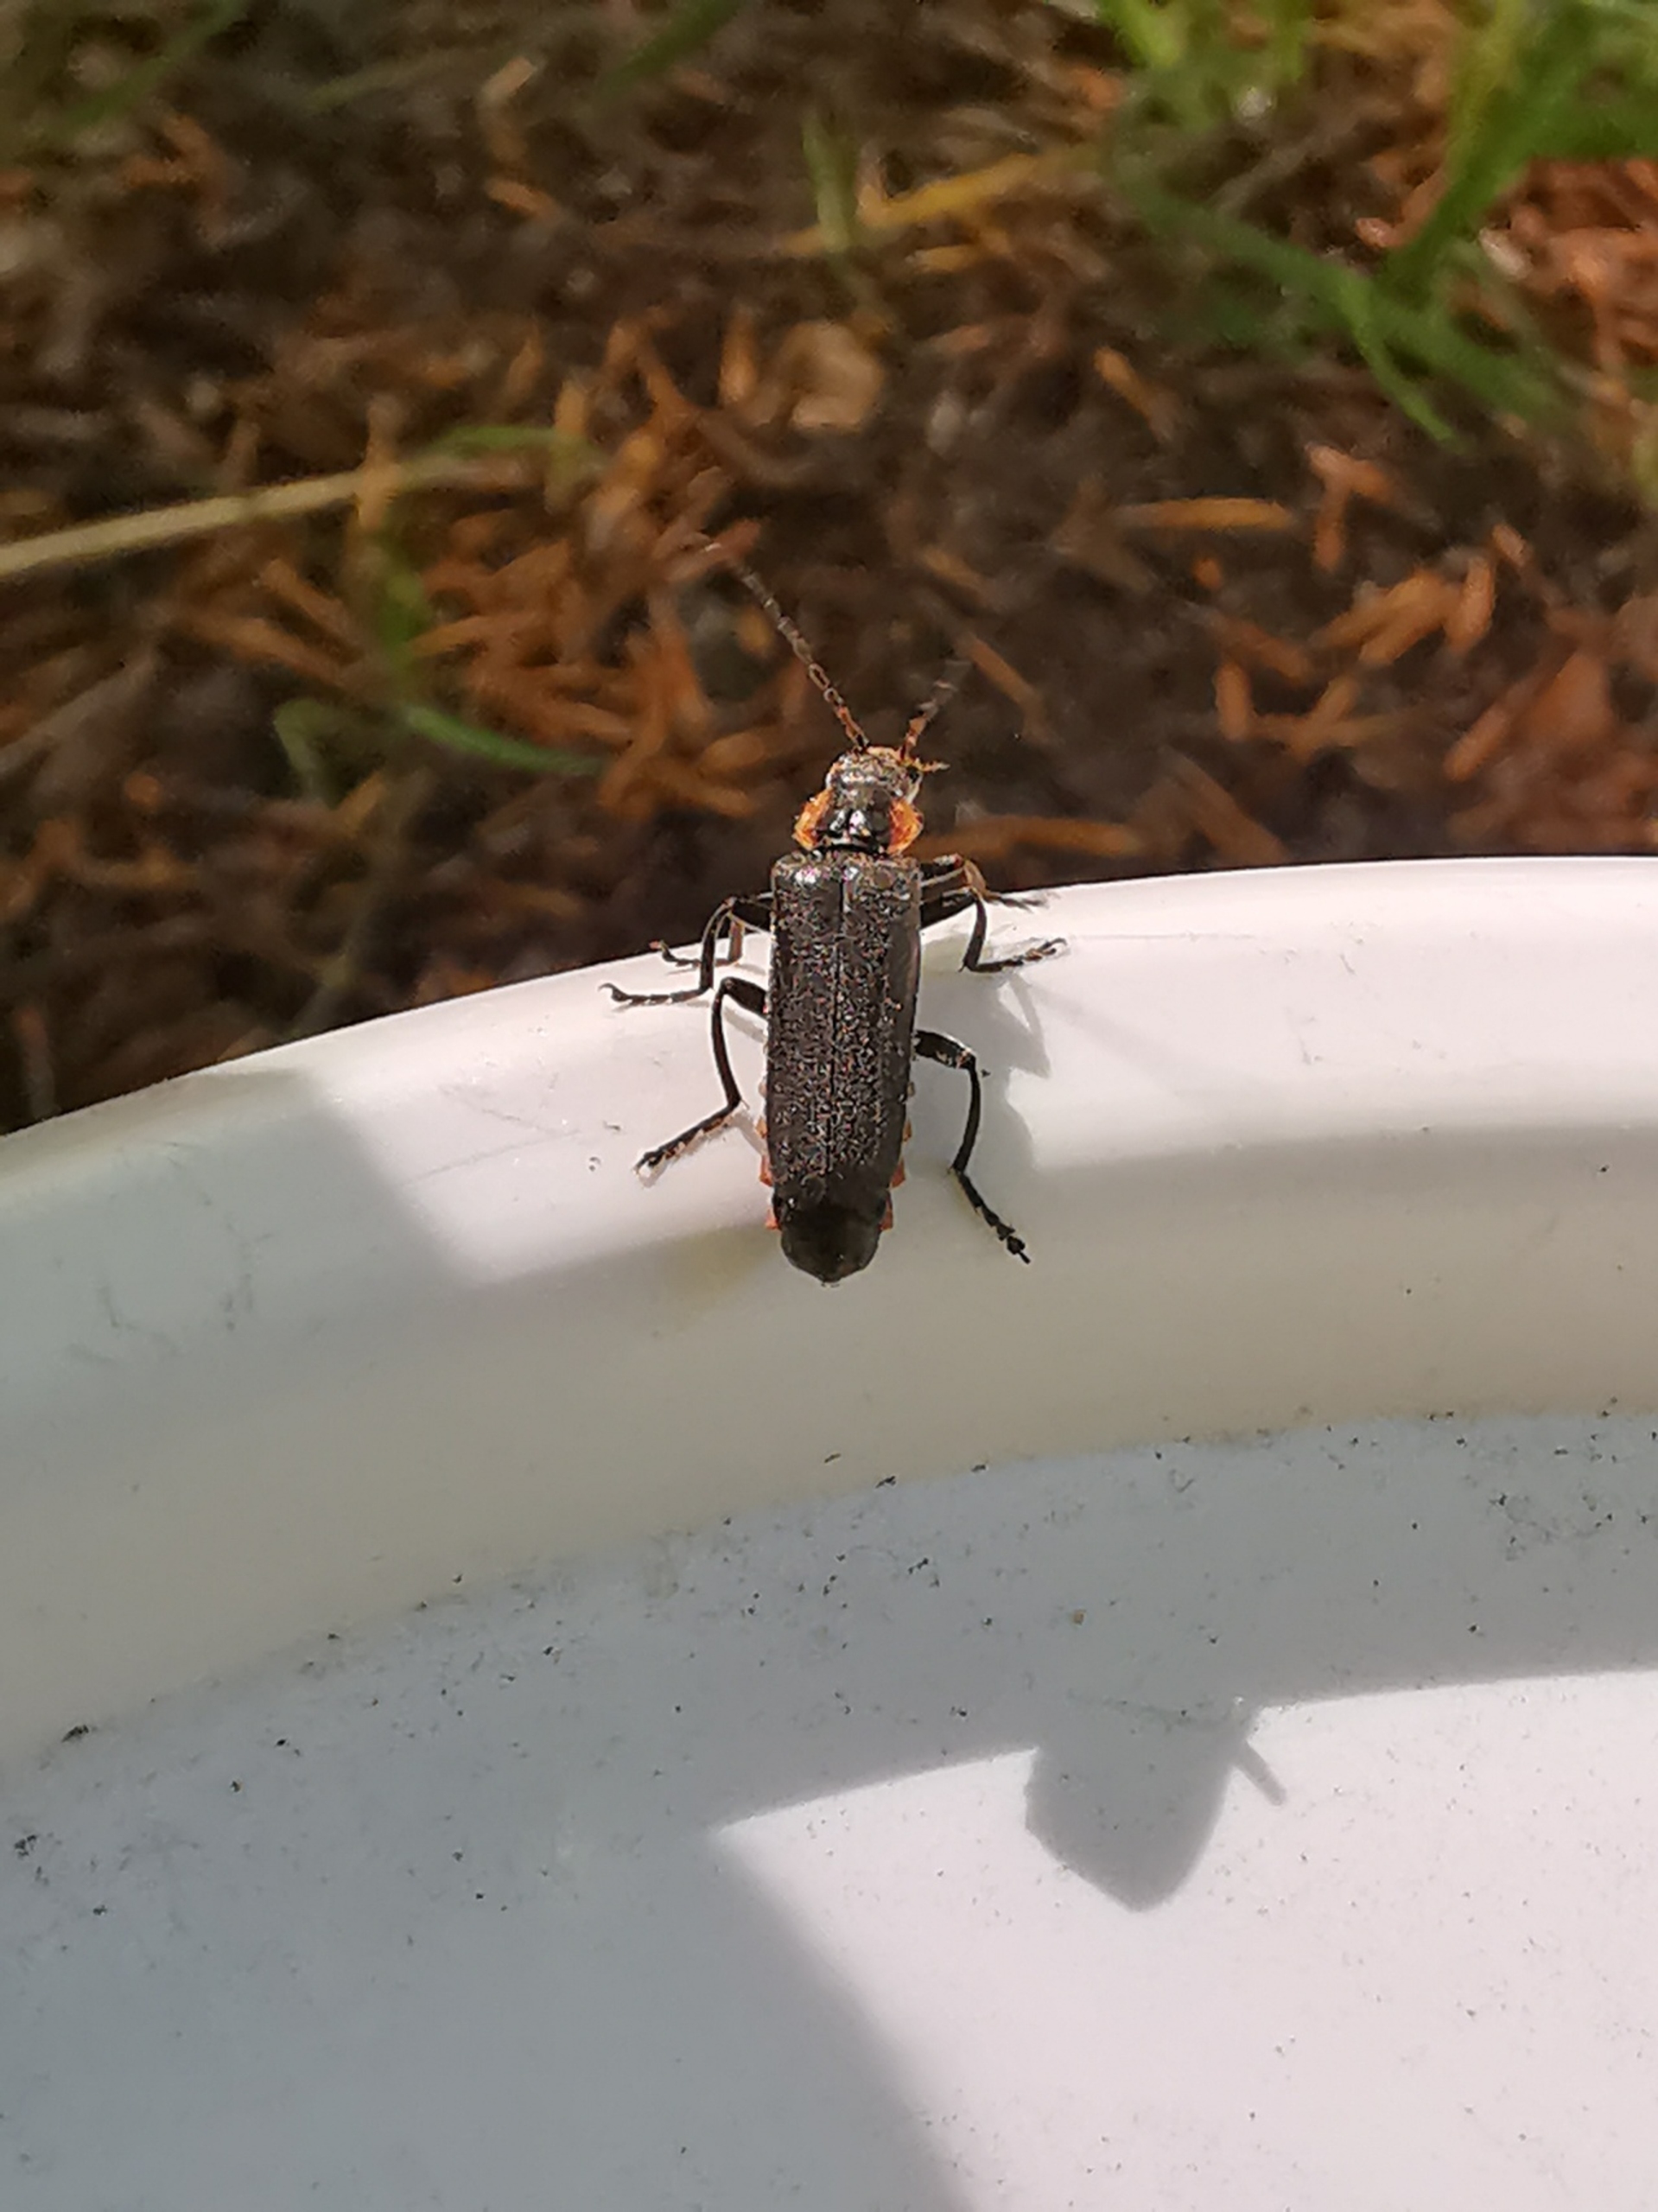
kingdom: Animalia
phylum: Arthropoda
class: Insecta
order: Coleoptera
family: Cantharidae
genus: Cantharis
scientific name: Cantharis fusca
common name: Stor blødvinge
